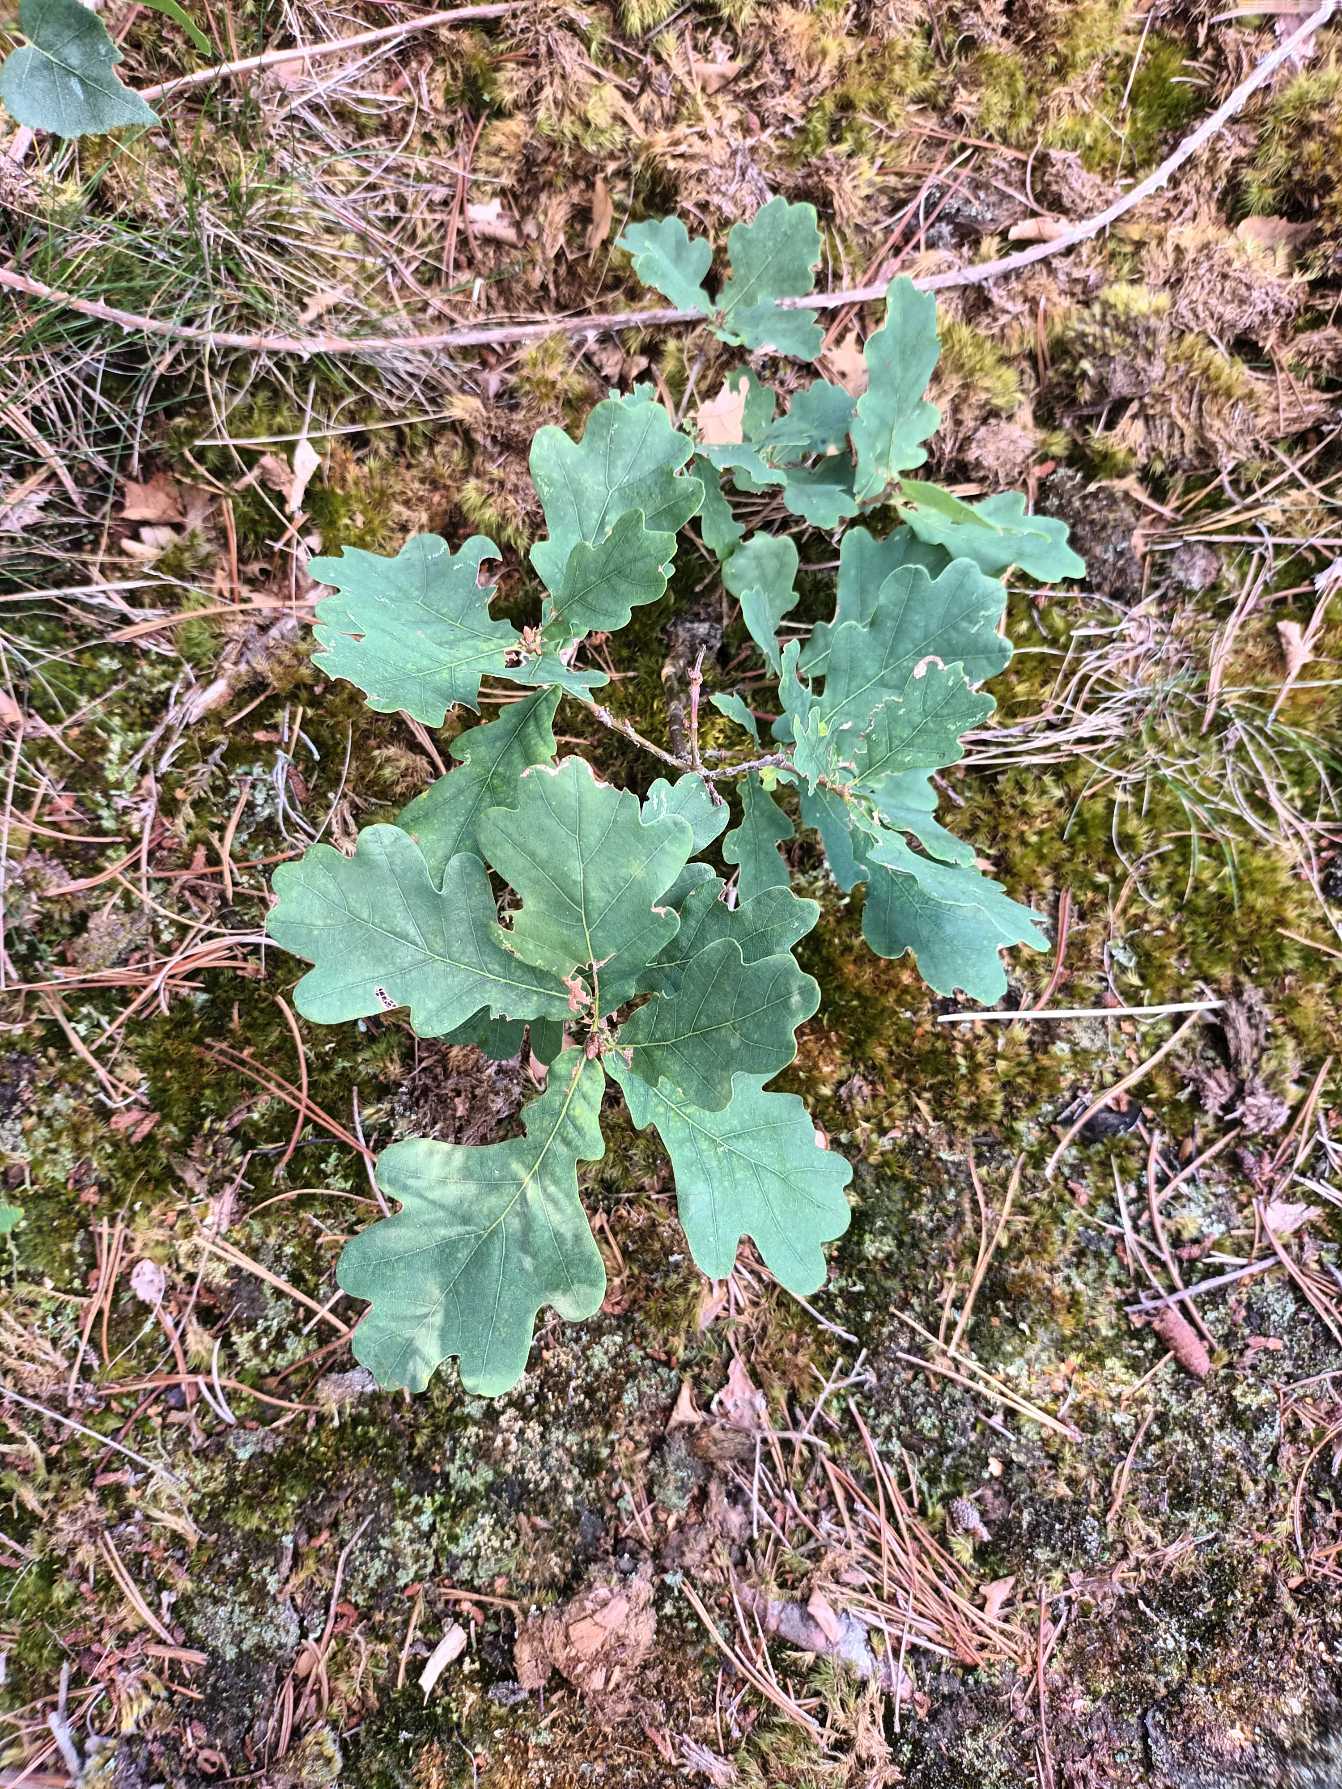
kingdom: Plantae
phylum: Tracheophyta
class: Magnoliopsida
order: Fagales
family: Fagaceae
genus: Quercus
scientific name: Quercus robur
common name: Stilk-eg/almindelig eg
